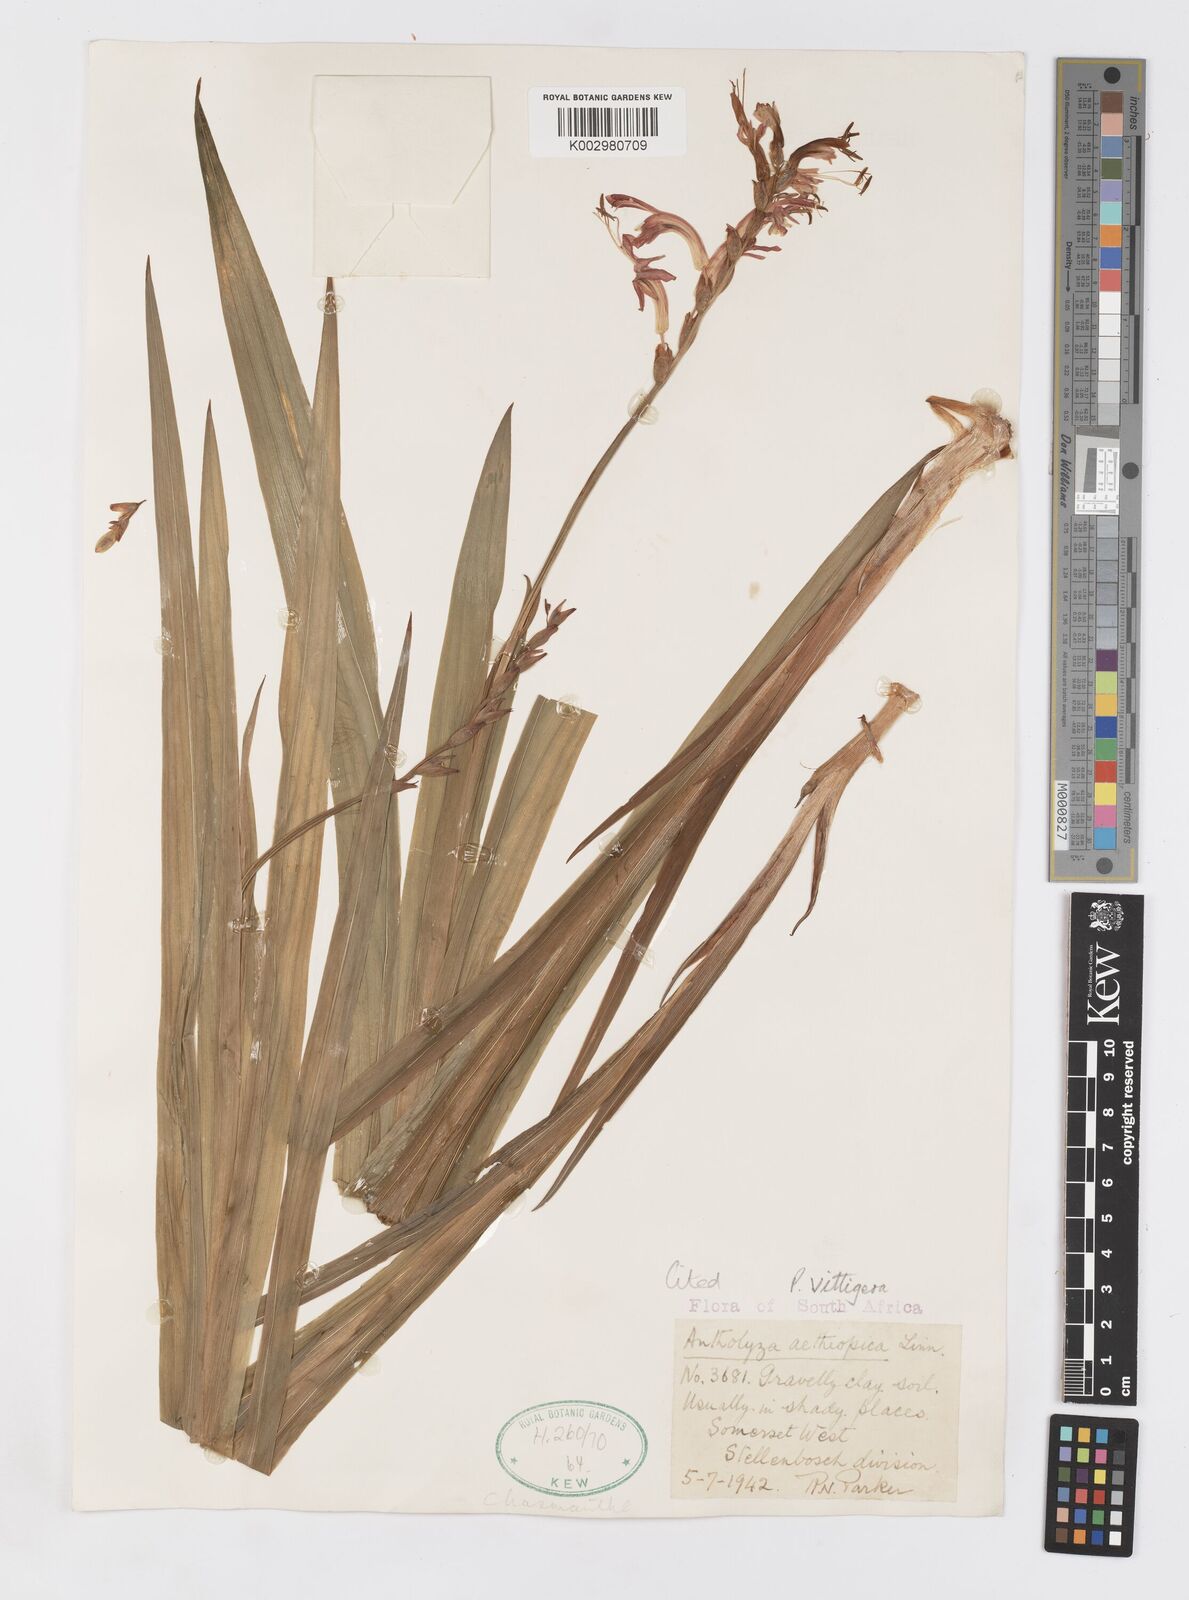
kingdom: Plantae
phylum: Tracheophyta
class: Liliopsida
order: Asparagales
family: Iridaceae
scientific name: Iridaceae
